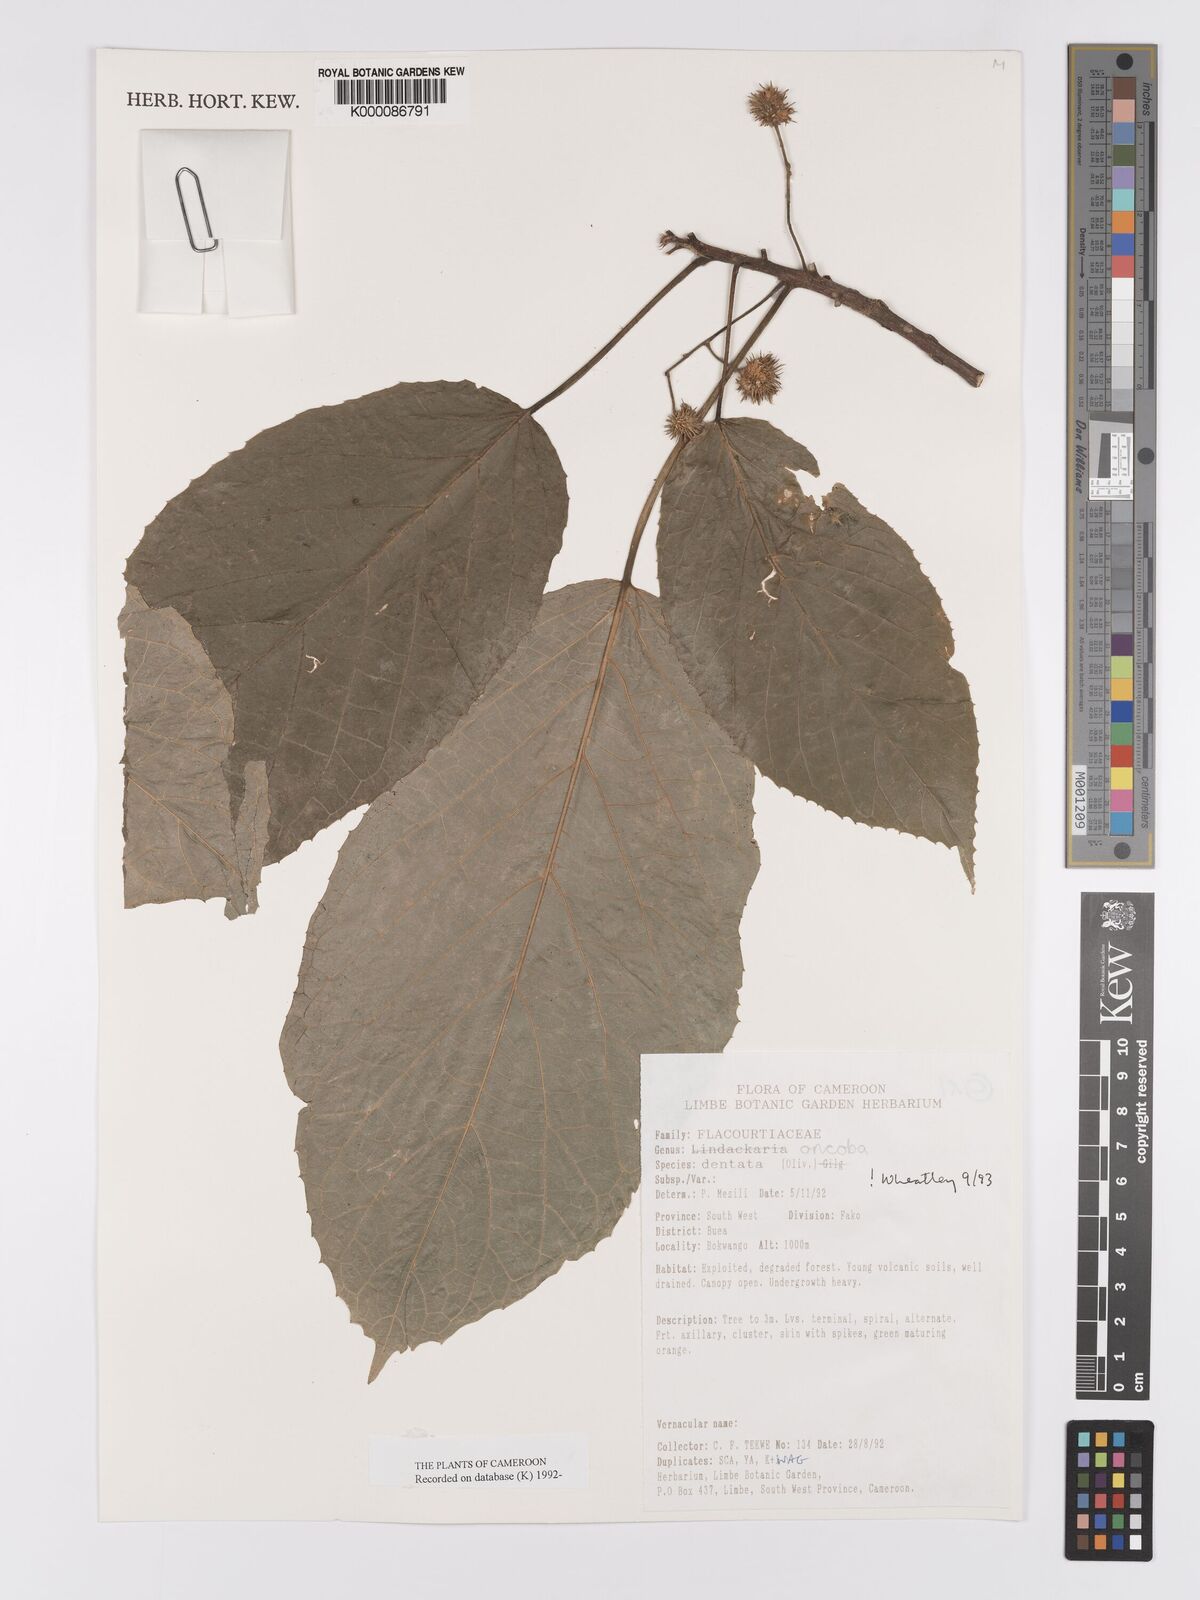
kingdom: Plantae
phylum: Tracheophyta
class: Magnoliopsida
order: Malpighiales
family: Achariaceae
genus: Lindackeria
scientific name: Lindackeria dentata
